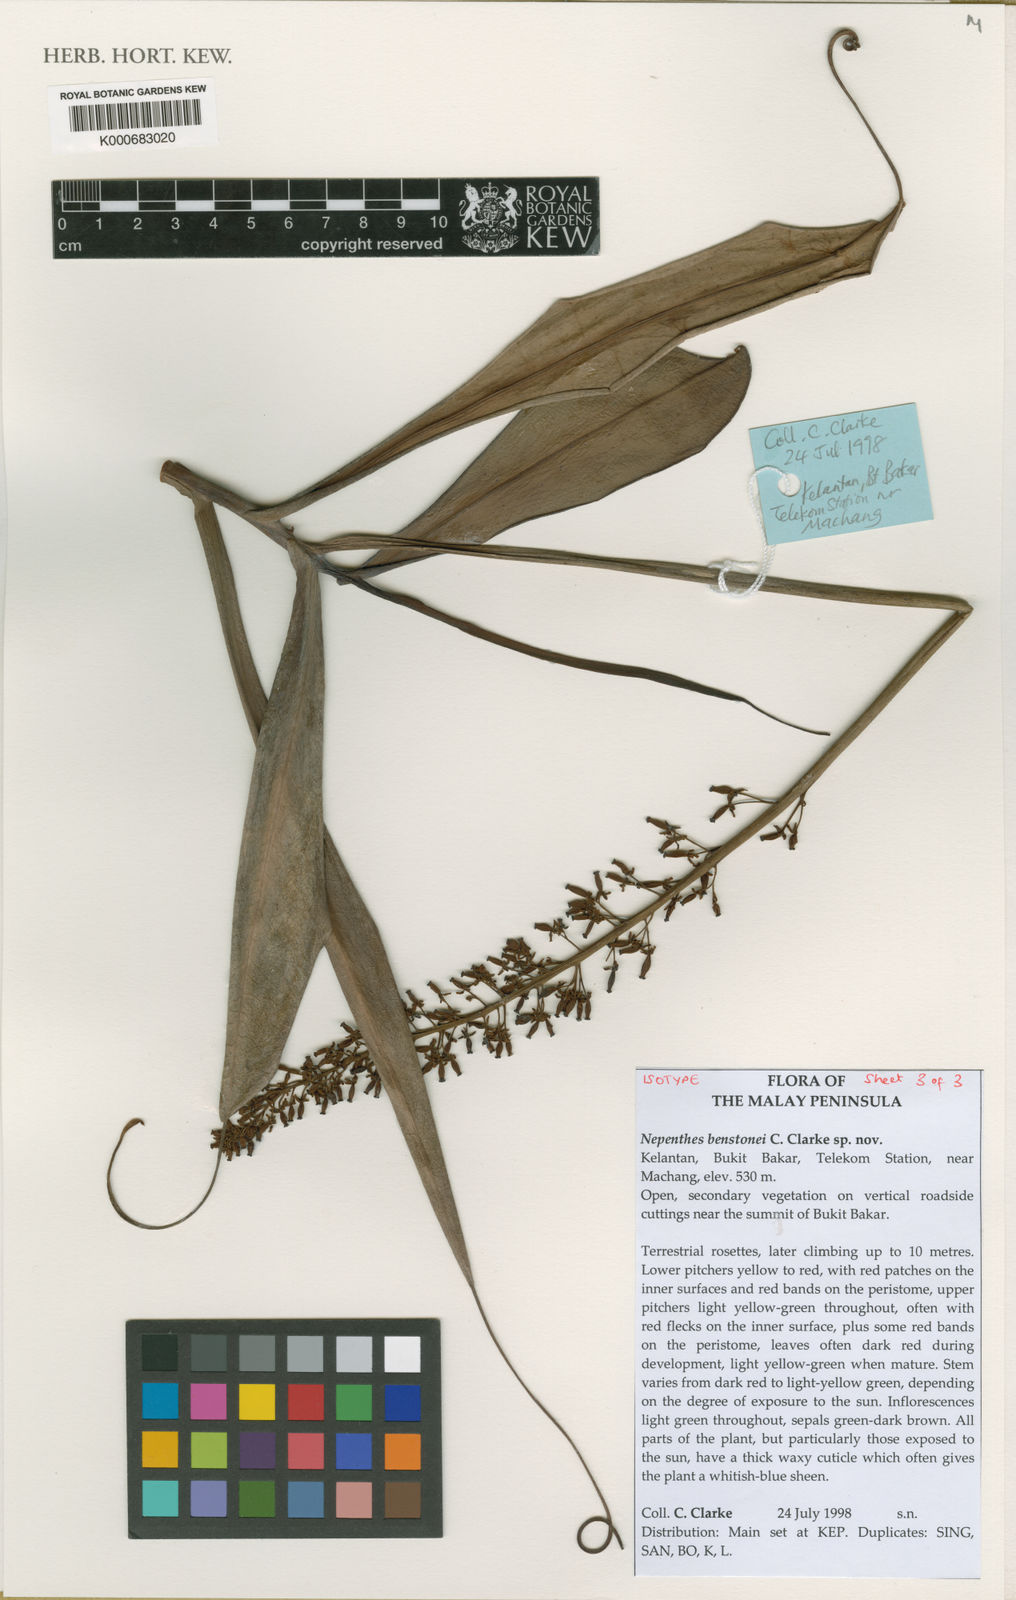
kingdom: Plantae
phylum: Tracheophyta
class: Magnoliopsida
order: Caryophyllales
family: Nepenthaceae
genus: Nepenthes
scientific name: Nepenthes benstonei
